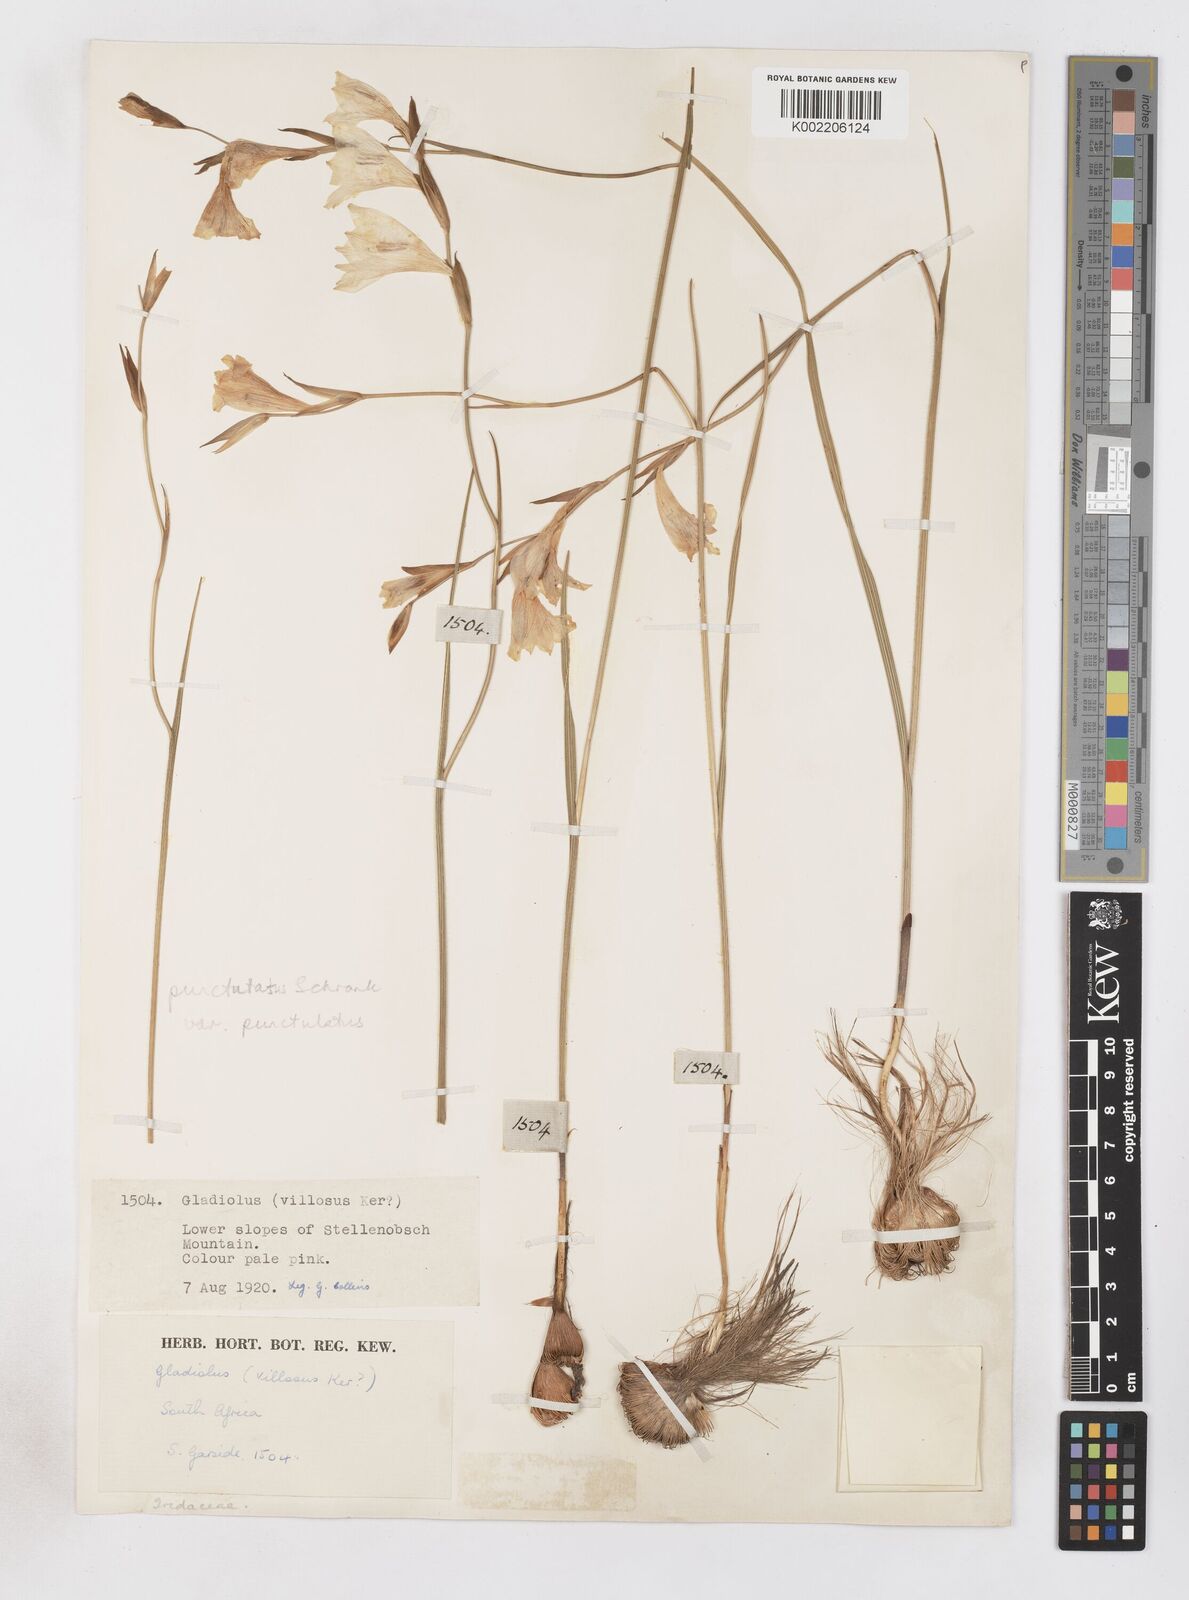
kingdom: Plantae
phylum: Tracheophyta
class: Liliopsida
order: Asparagales
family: Iridaceae
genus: Gladiolus
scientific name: Gladiolus hirsutus
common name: Small pink afrikaner
